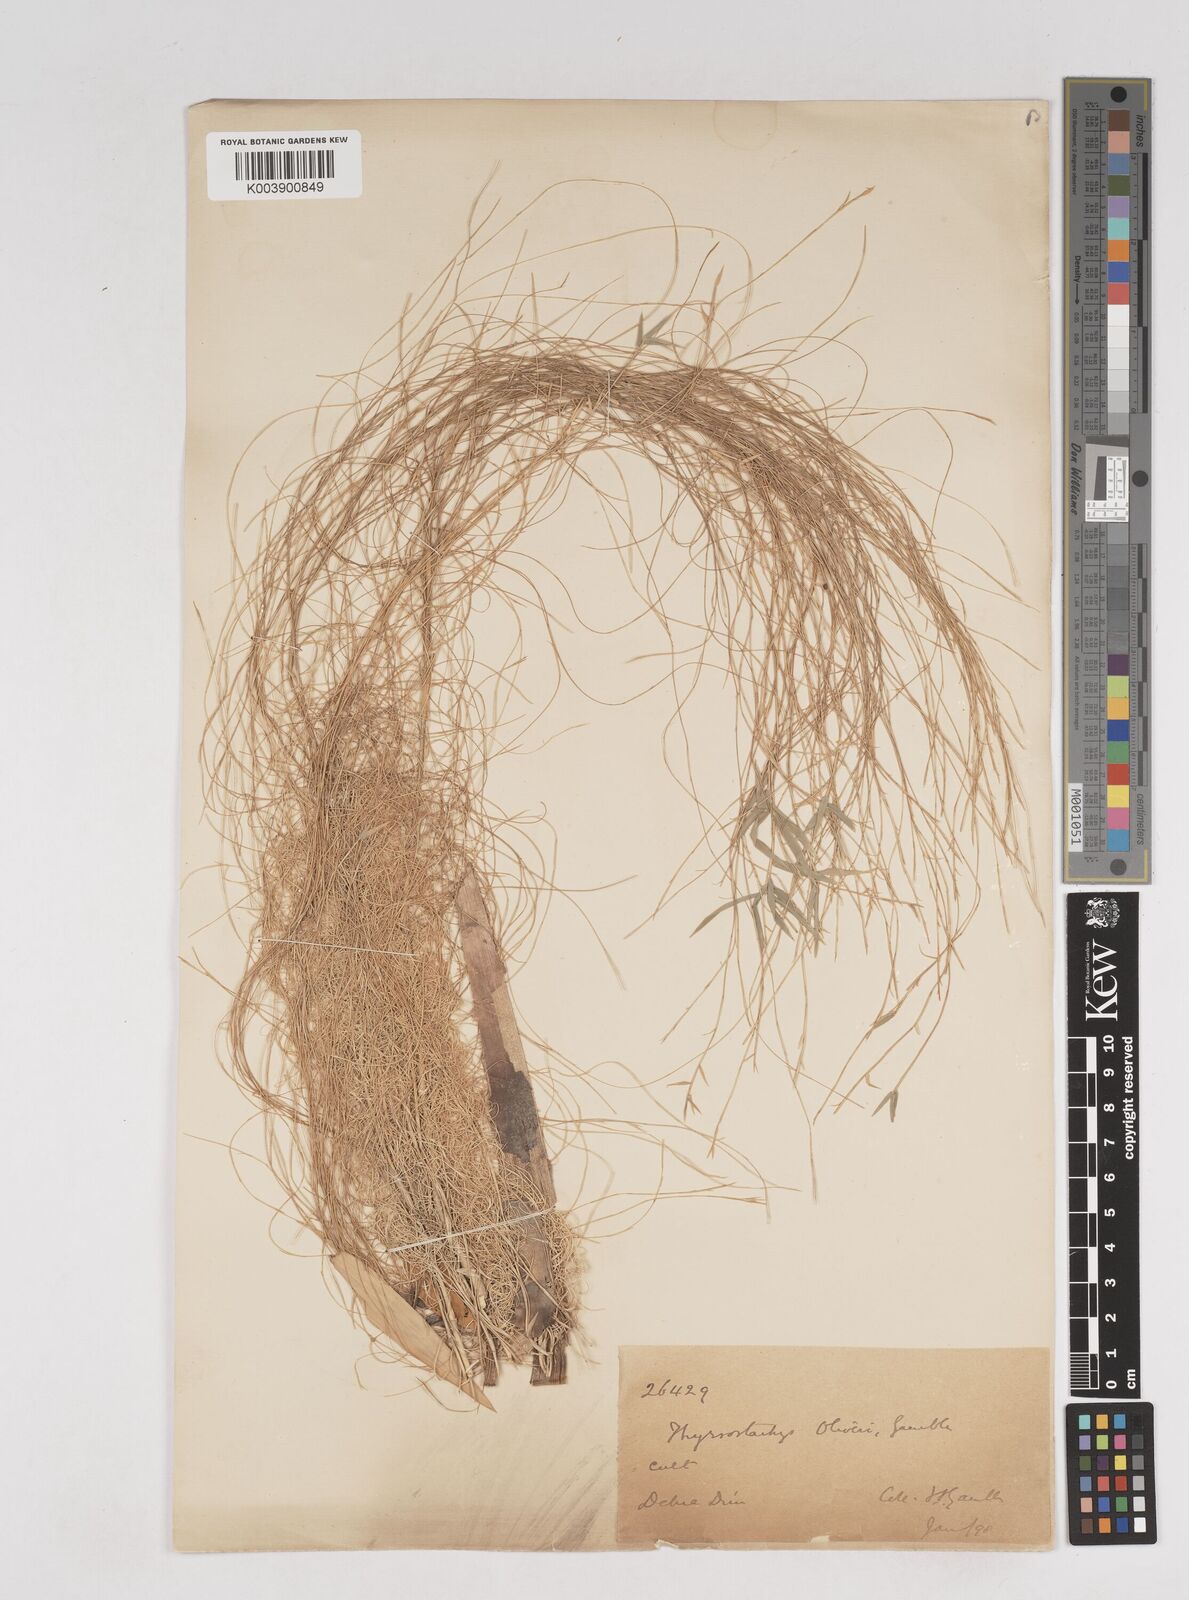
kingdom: Plantae
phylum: Tracheophyta
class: Liliopsida
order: Poales
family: Poaceae
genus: Thyrsostachys
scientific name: Thyrsostachys oliveri
